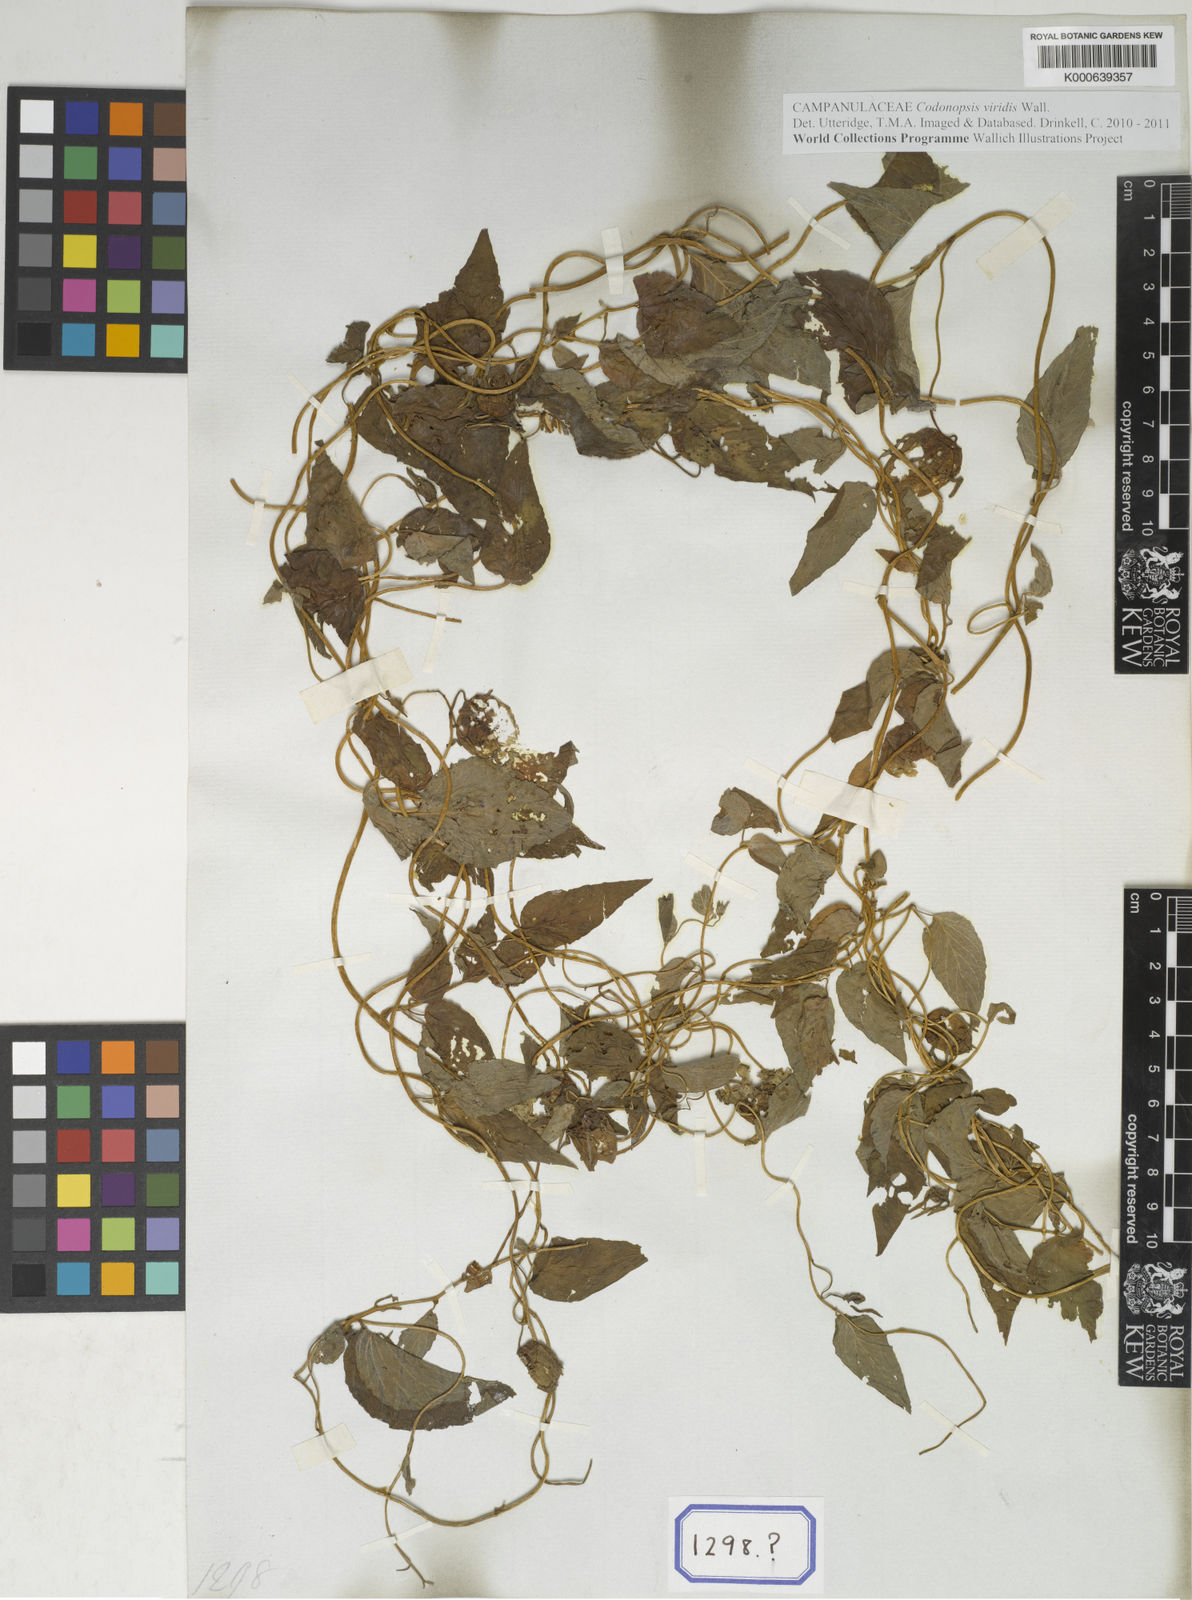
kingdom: Plantae
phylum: Tracheophyta
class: Magnoliopsida
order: Asterales
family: Campanulaceae
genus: Codonopsis
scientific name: Codonopsis viridis
